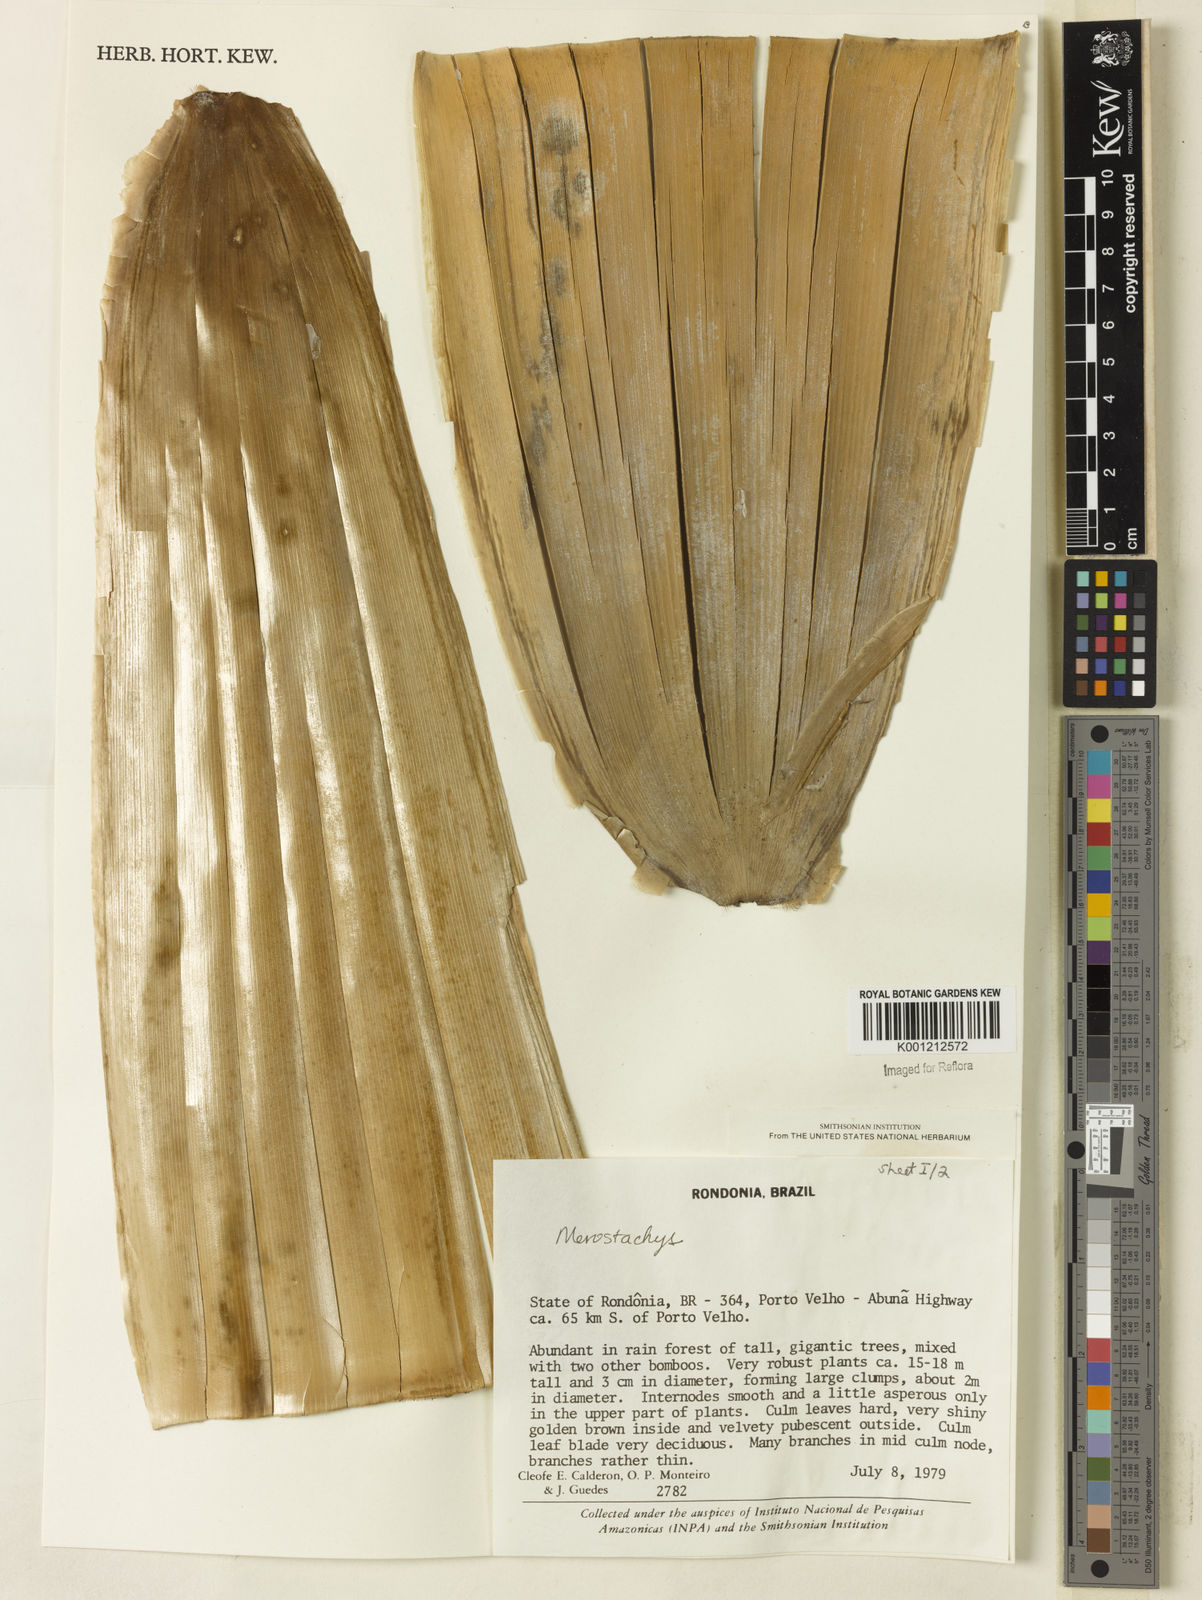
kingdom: Plantae
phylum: Tracheophyta
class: Liliopsida
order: Poales
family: Poaceae
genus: Merostachys
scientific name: Merostachys
